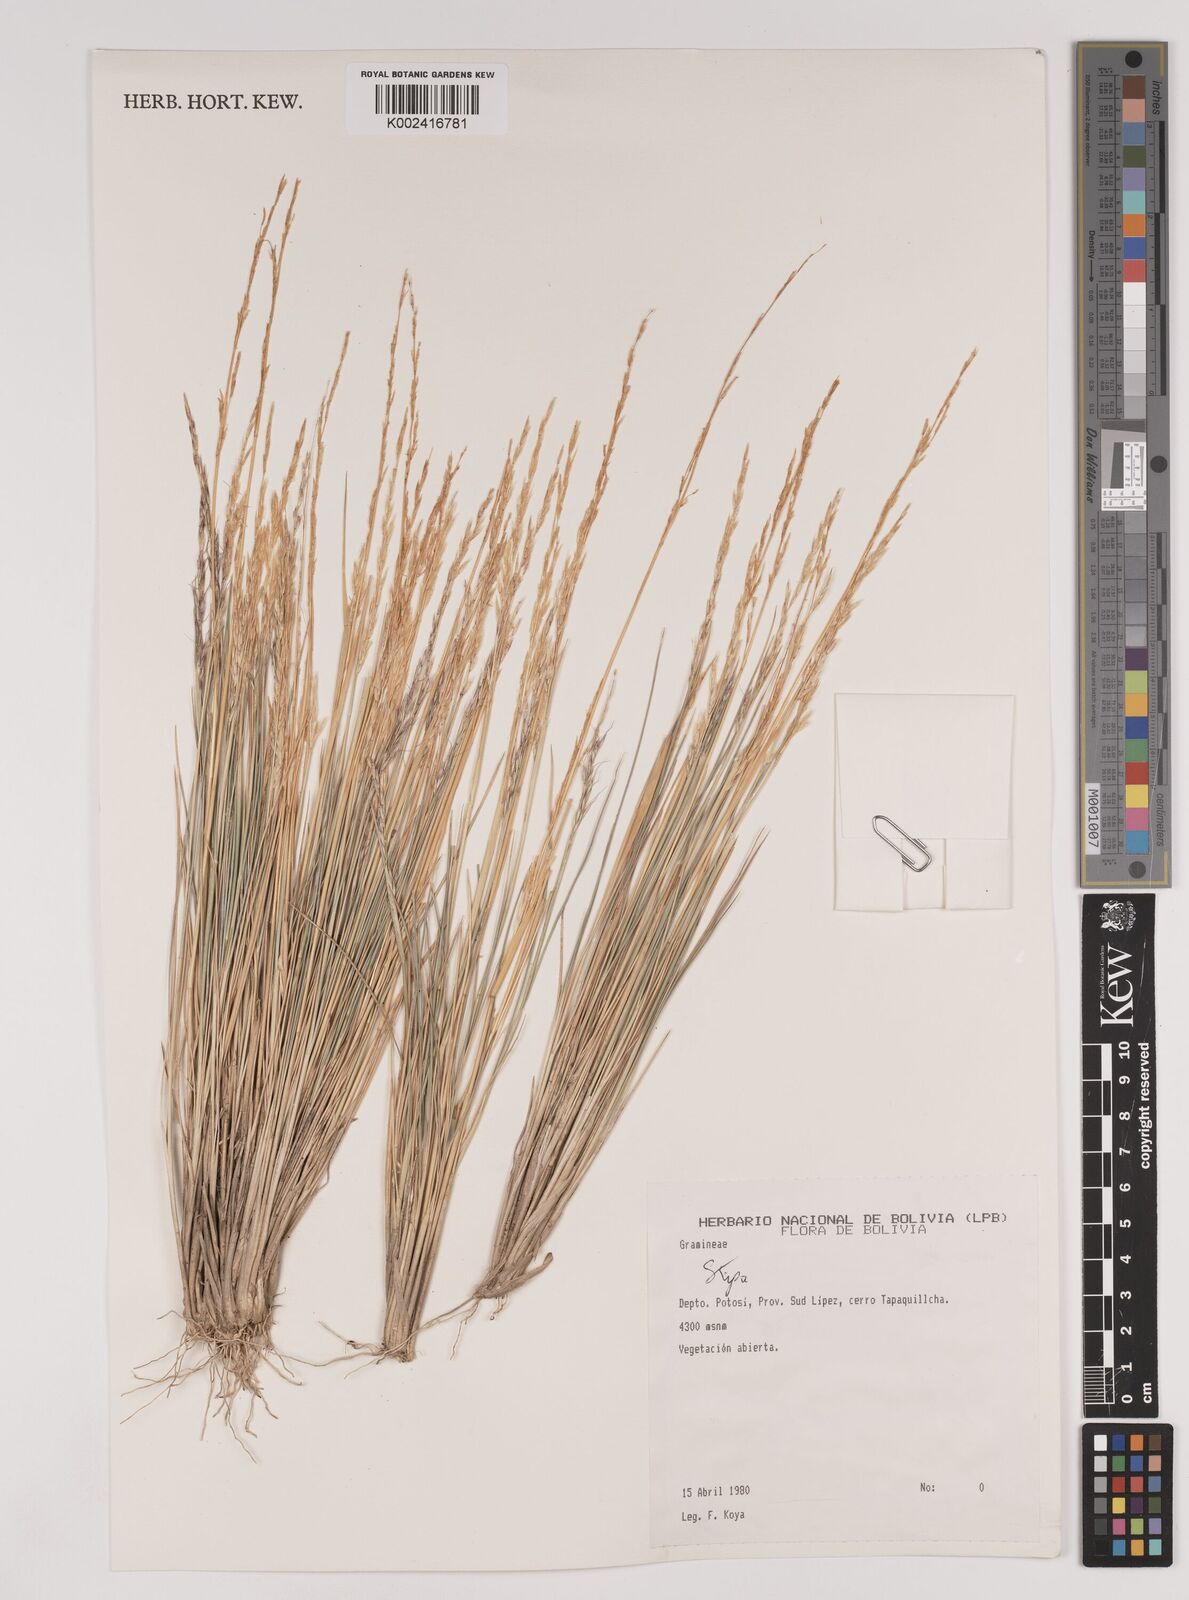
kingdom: Plantae
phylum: Tracheophyta
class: Liliopsida
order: Poales
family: Poaceae
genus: Stipa
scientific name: Stipa rigidiseta
